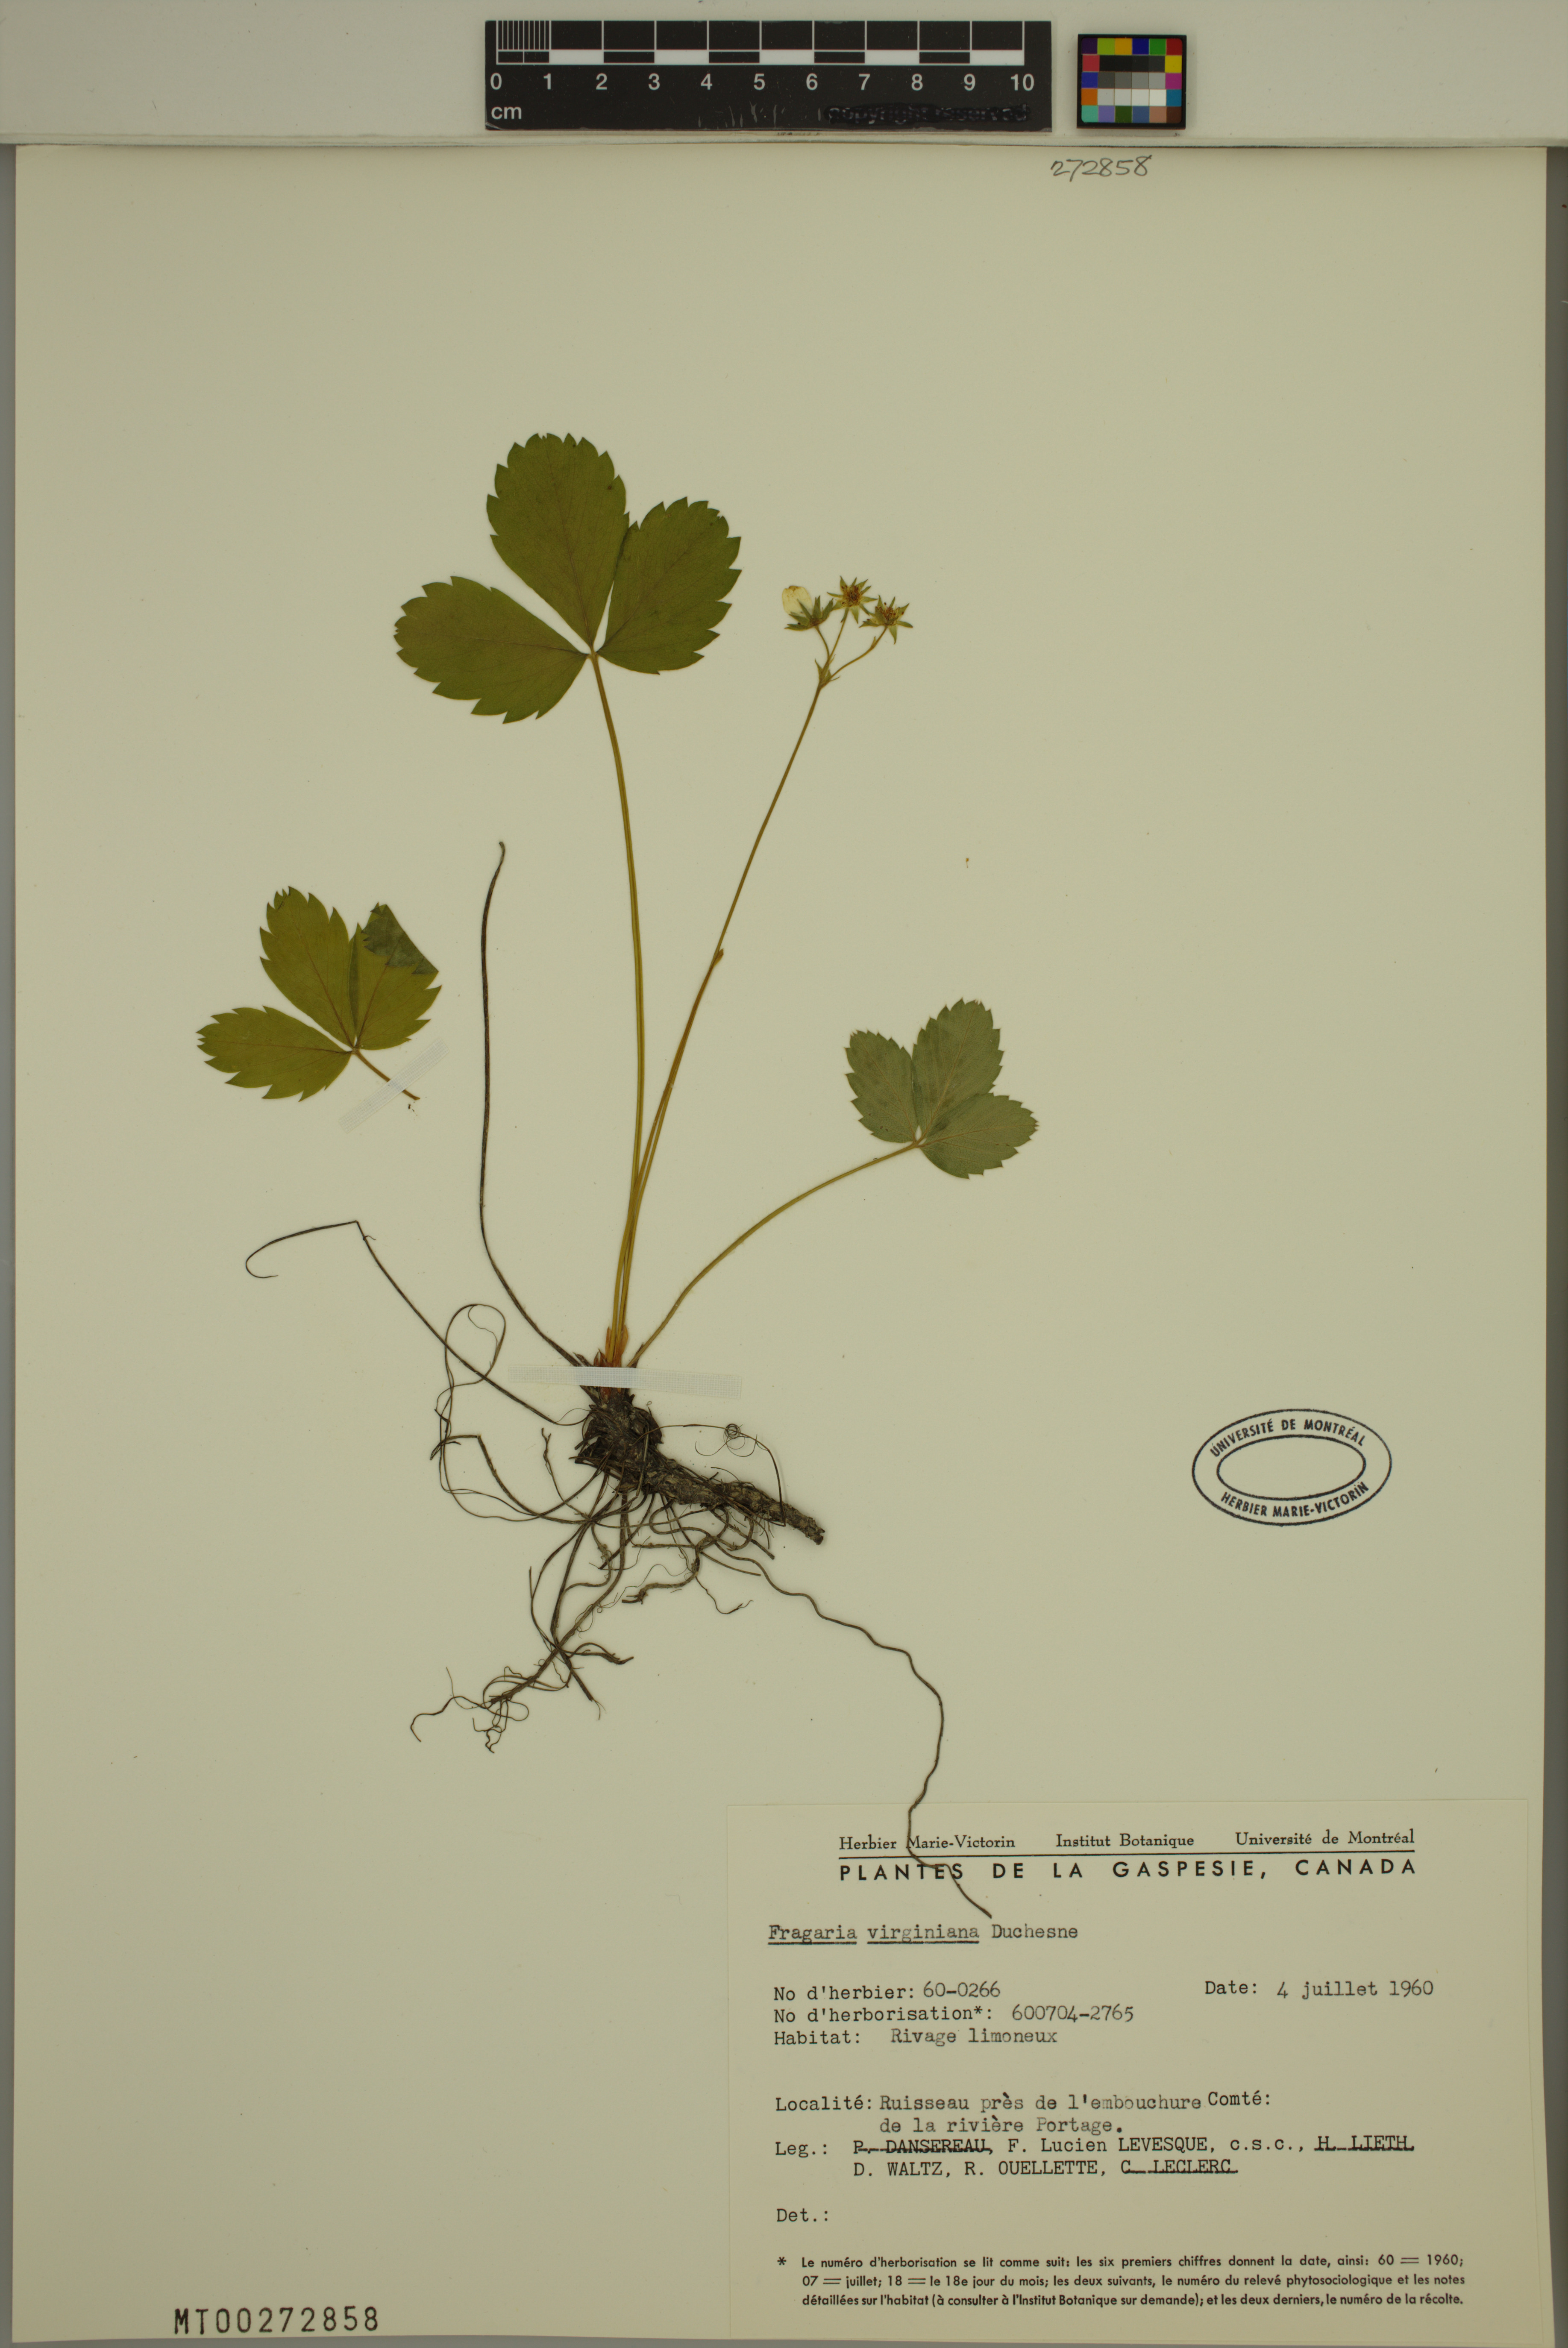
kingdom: Plantae
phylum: Tracheophyta
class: Magnoliopsida
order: Rosales
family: Rosaceae
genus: Fragaria
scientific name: Fragaria virginiana
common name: Thickleaved wild strawberry
